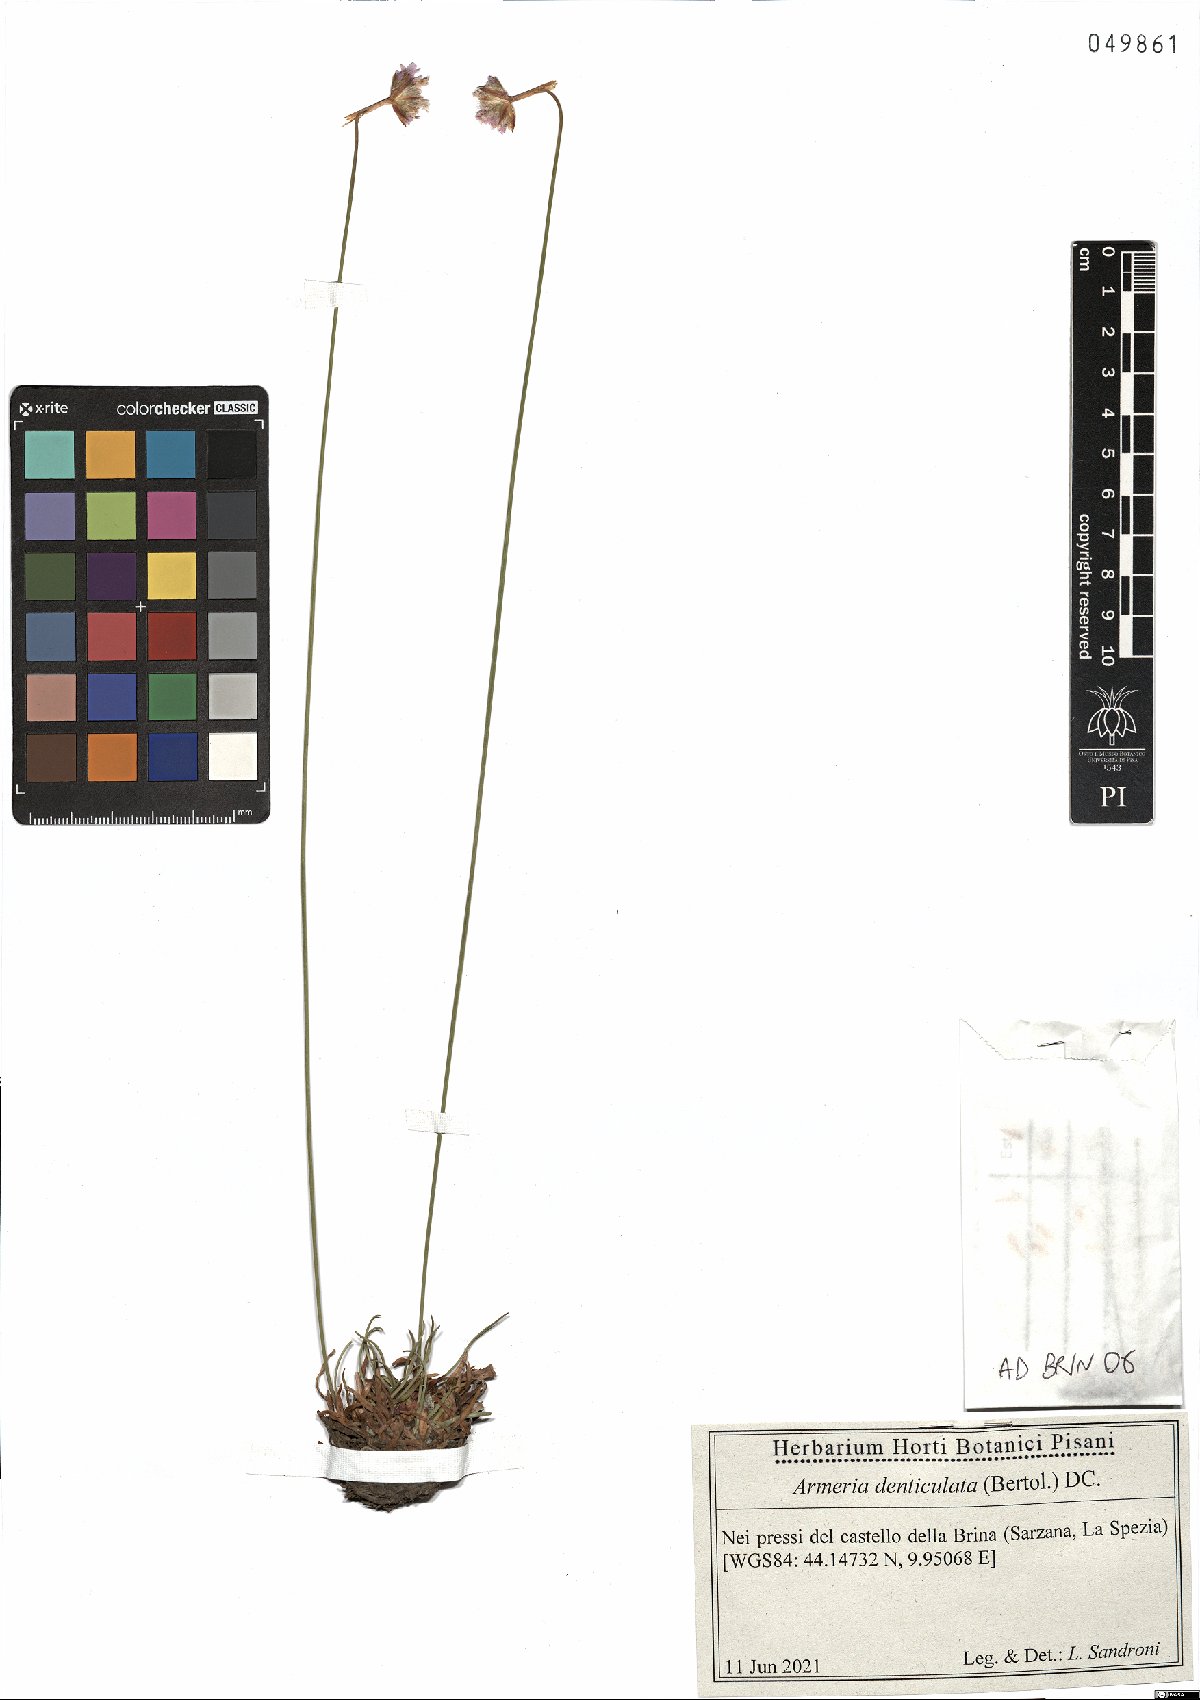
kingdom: Plantae
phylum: Tracheophyta
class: Magnoliopsida
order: Caryophyllales
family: Plumbaginaceae
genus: Armeria
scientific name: Armeria denticulata
